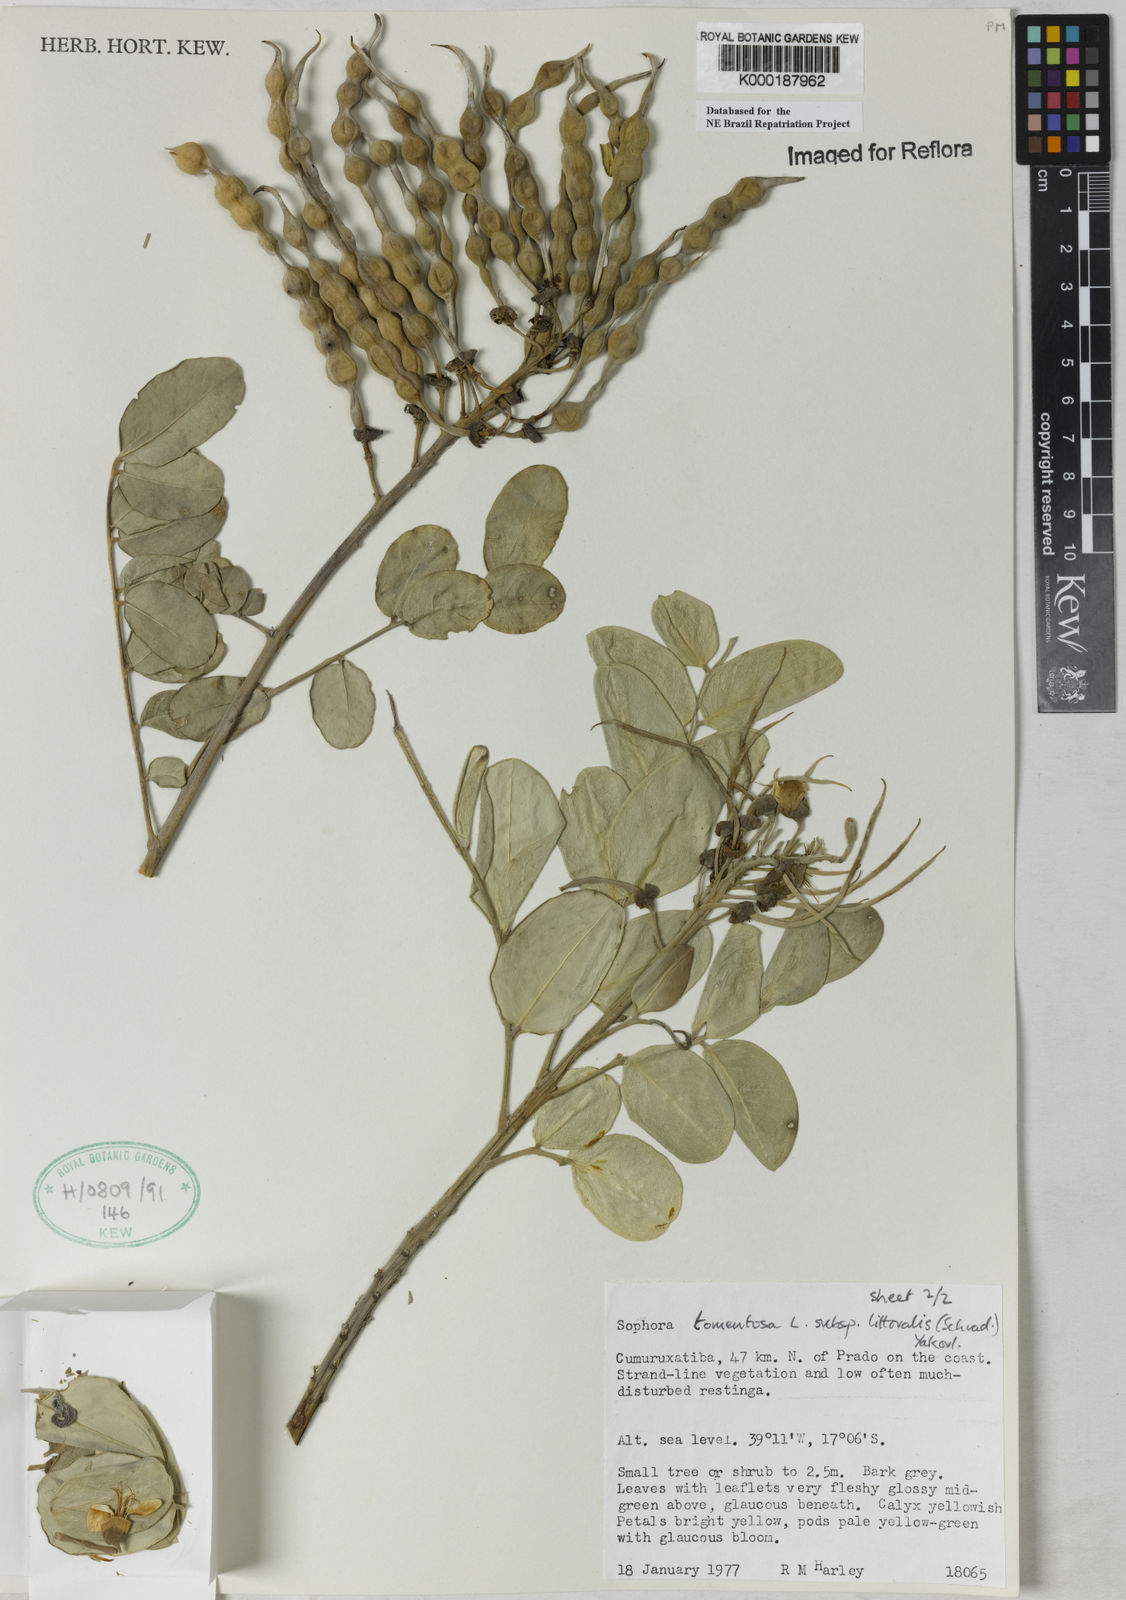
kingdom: Plantae
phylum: Tracheophyta
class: Magnoliopsida
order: Fabales
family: Fabaceae
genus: Sophora
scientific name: Sophora tomentosa
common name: Yellow necklacepod
